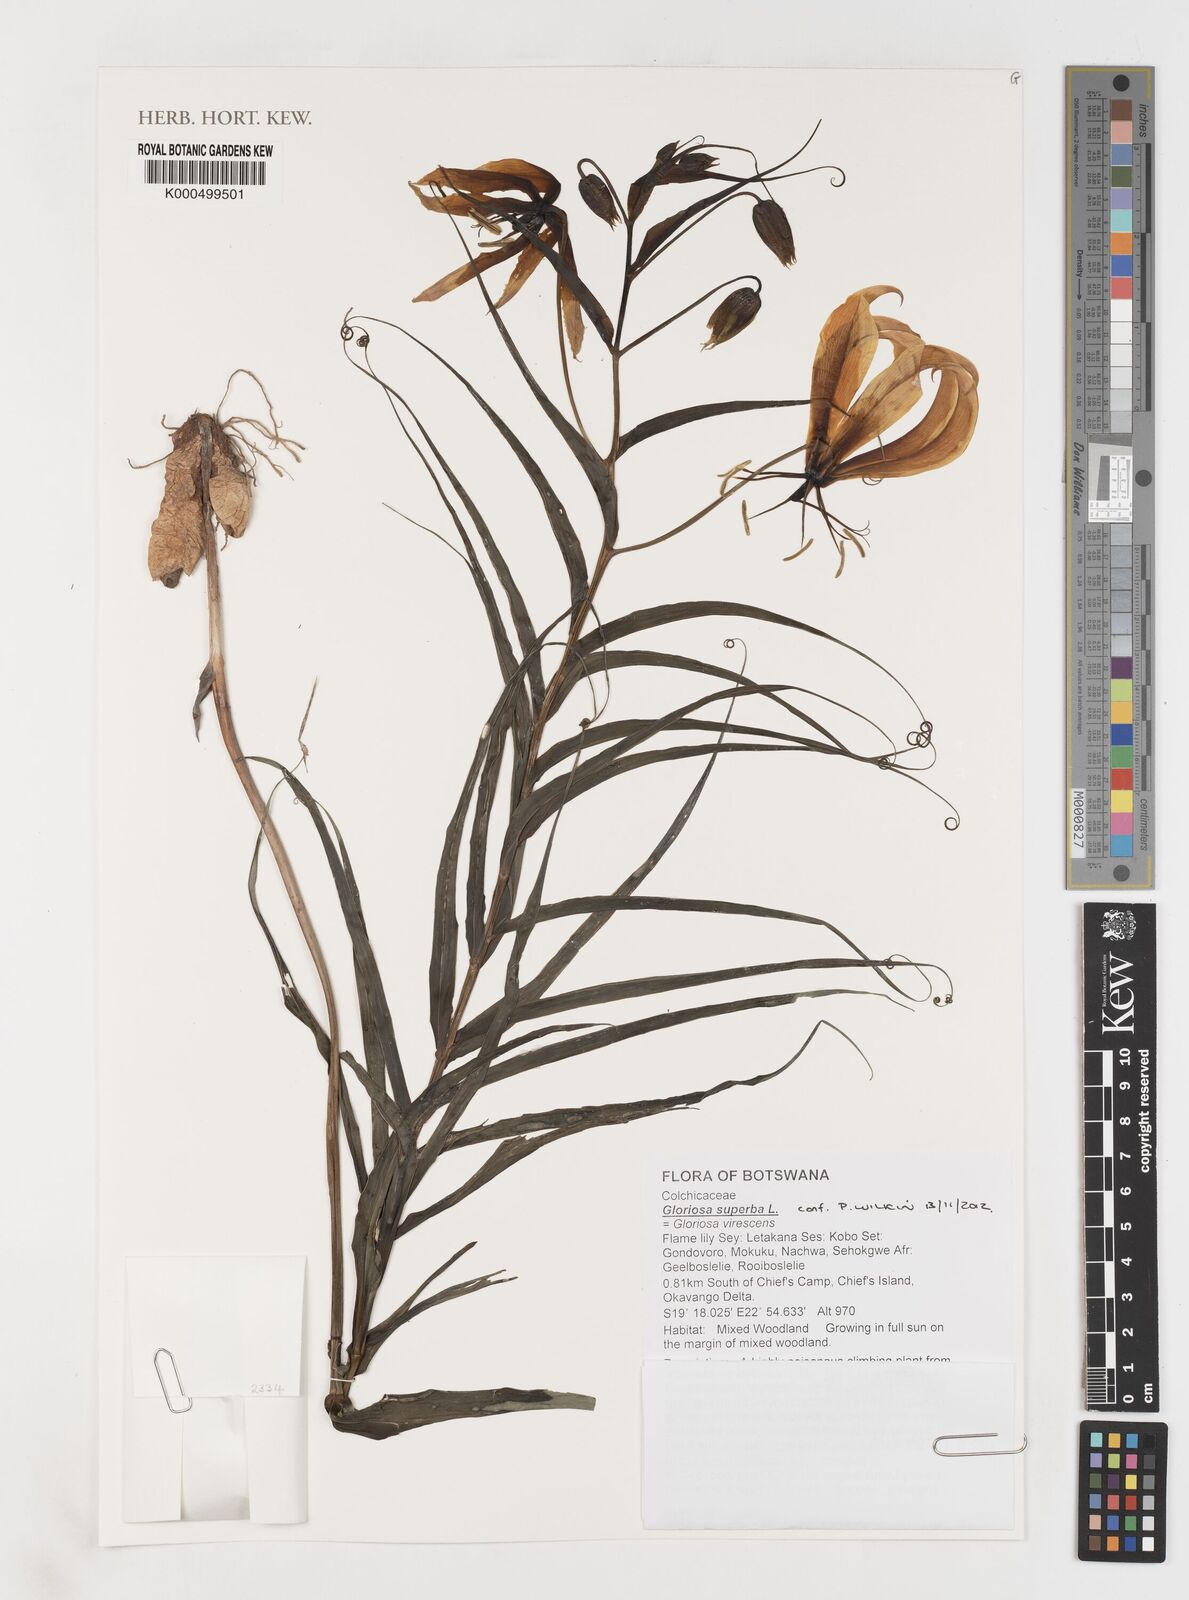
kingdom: Plantae
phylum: Tracheophyta
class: Liliopsida
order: Liliales
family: Colchicaceae
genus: Gloriosa
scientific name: Gloriosa superba
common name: Flame lily
